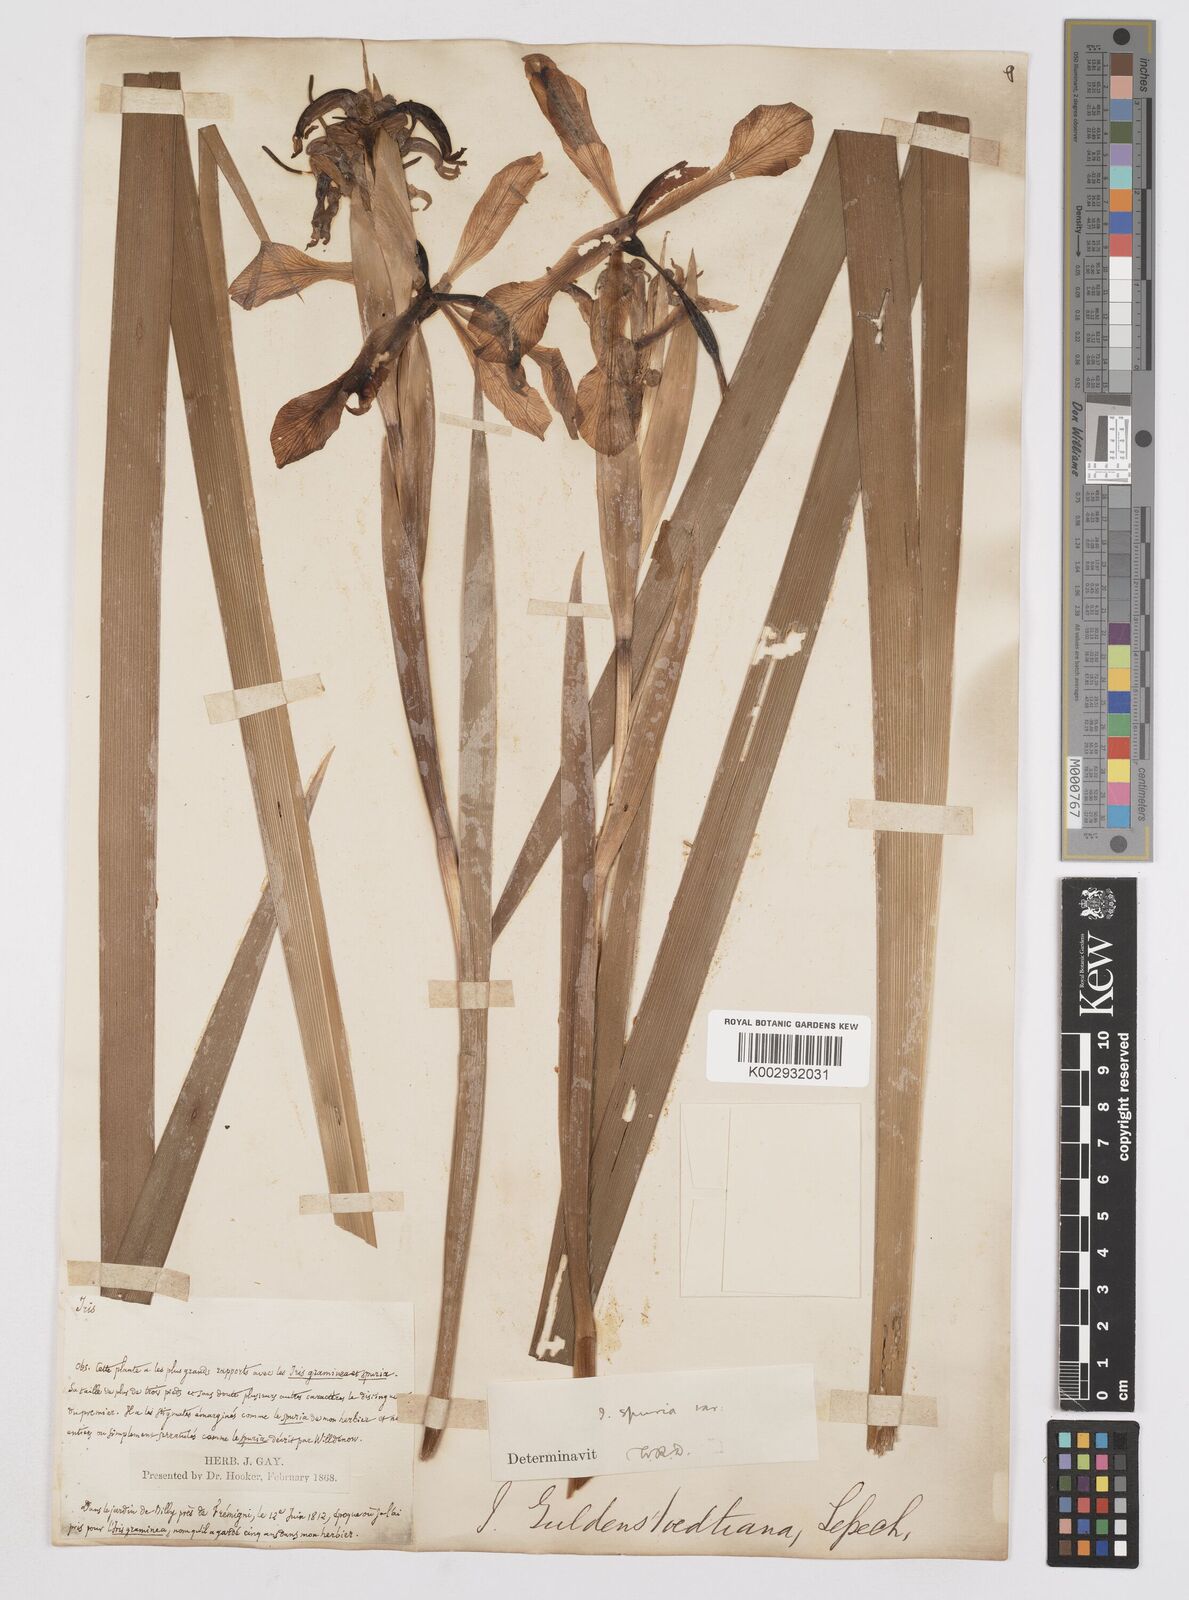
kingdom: Plantae
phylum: Tracheophyta
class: Liliopsida
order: Asparagales
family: Iridaceae
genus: Iris
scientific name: Iris halophila
